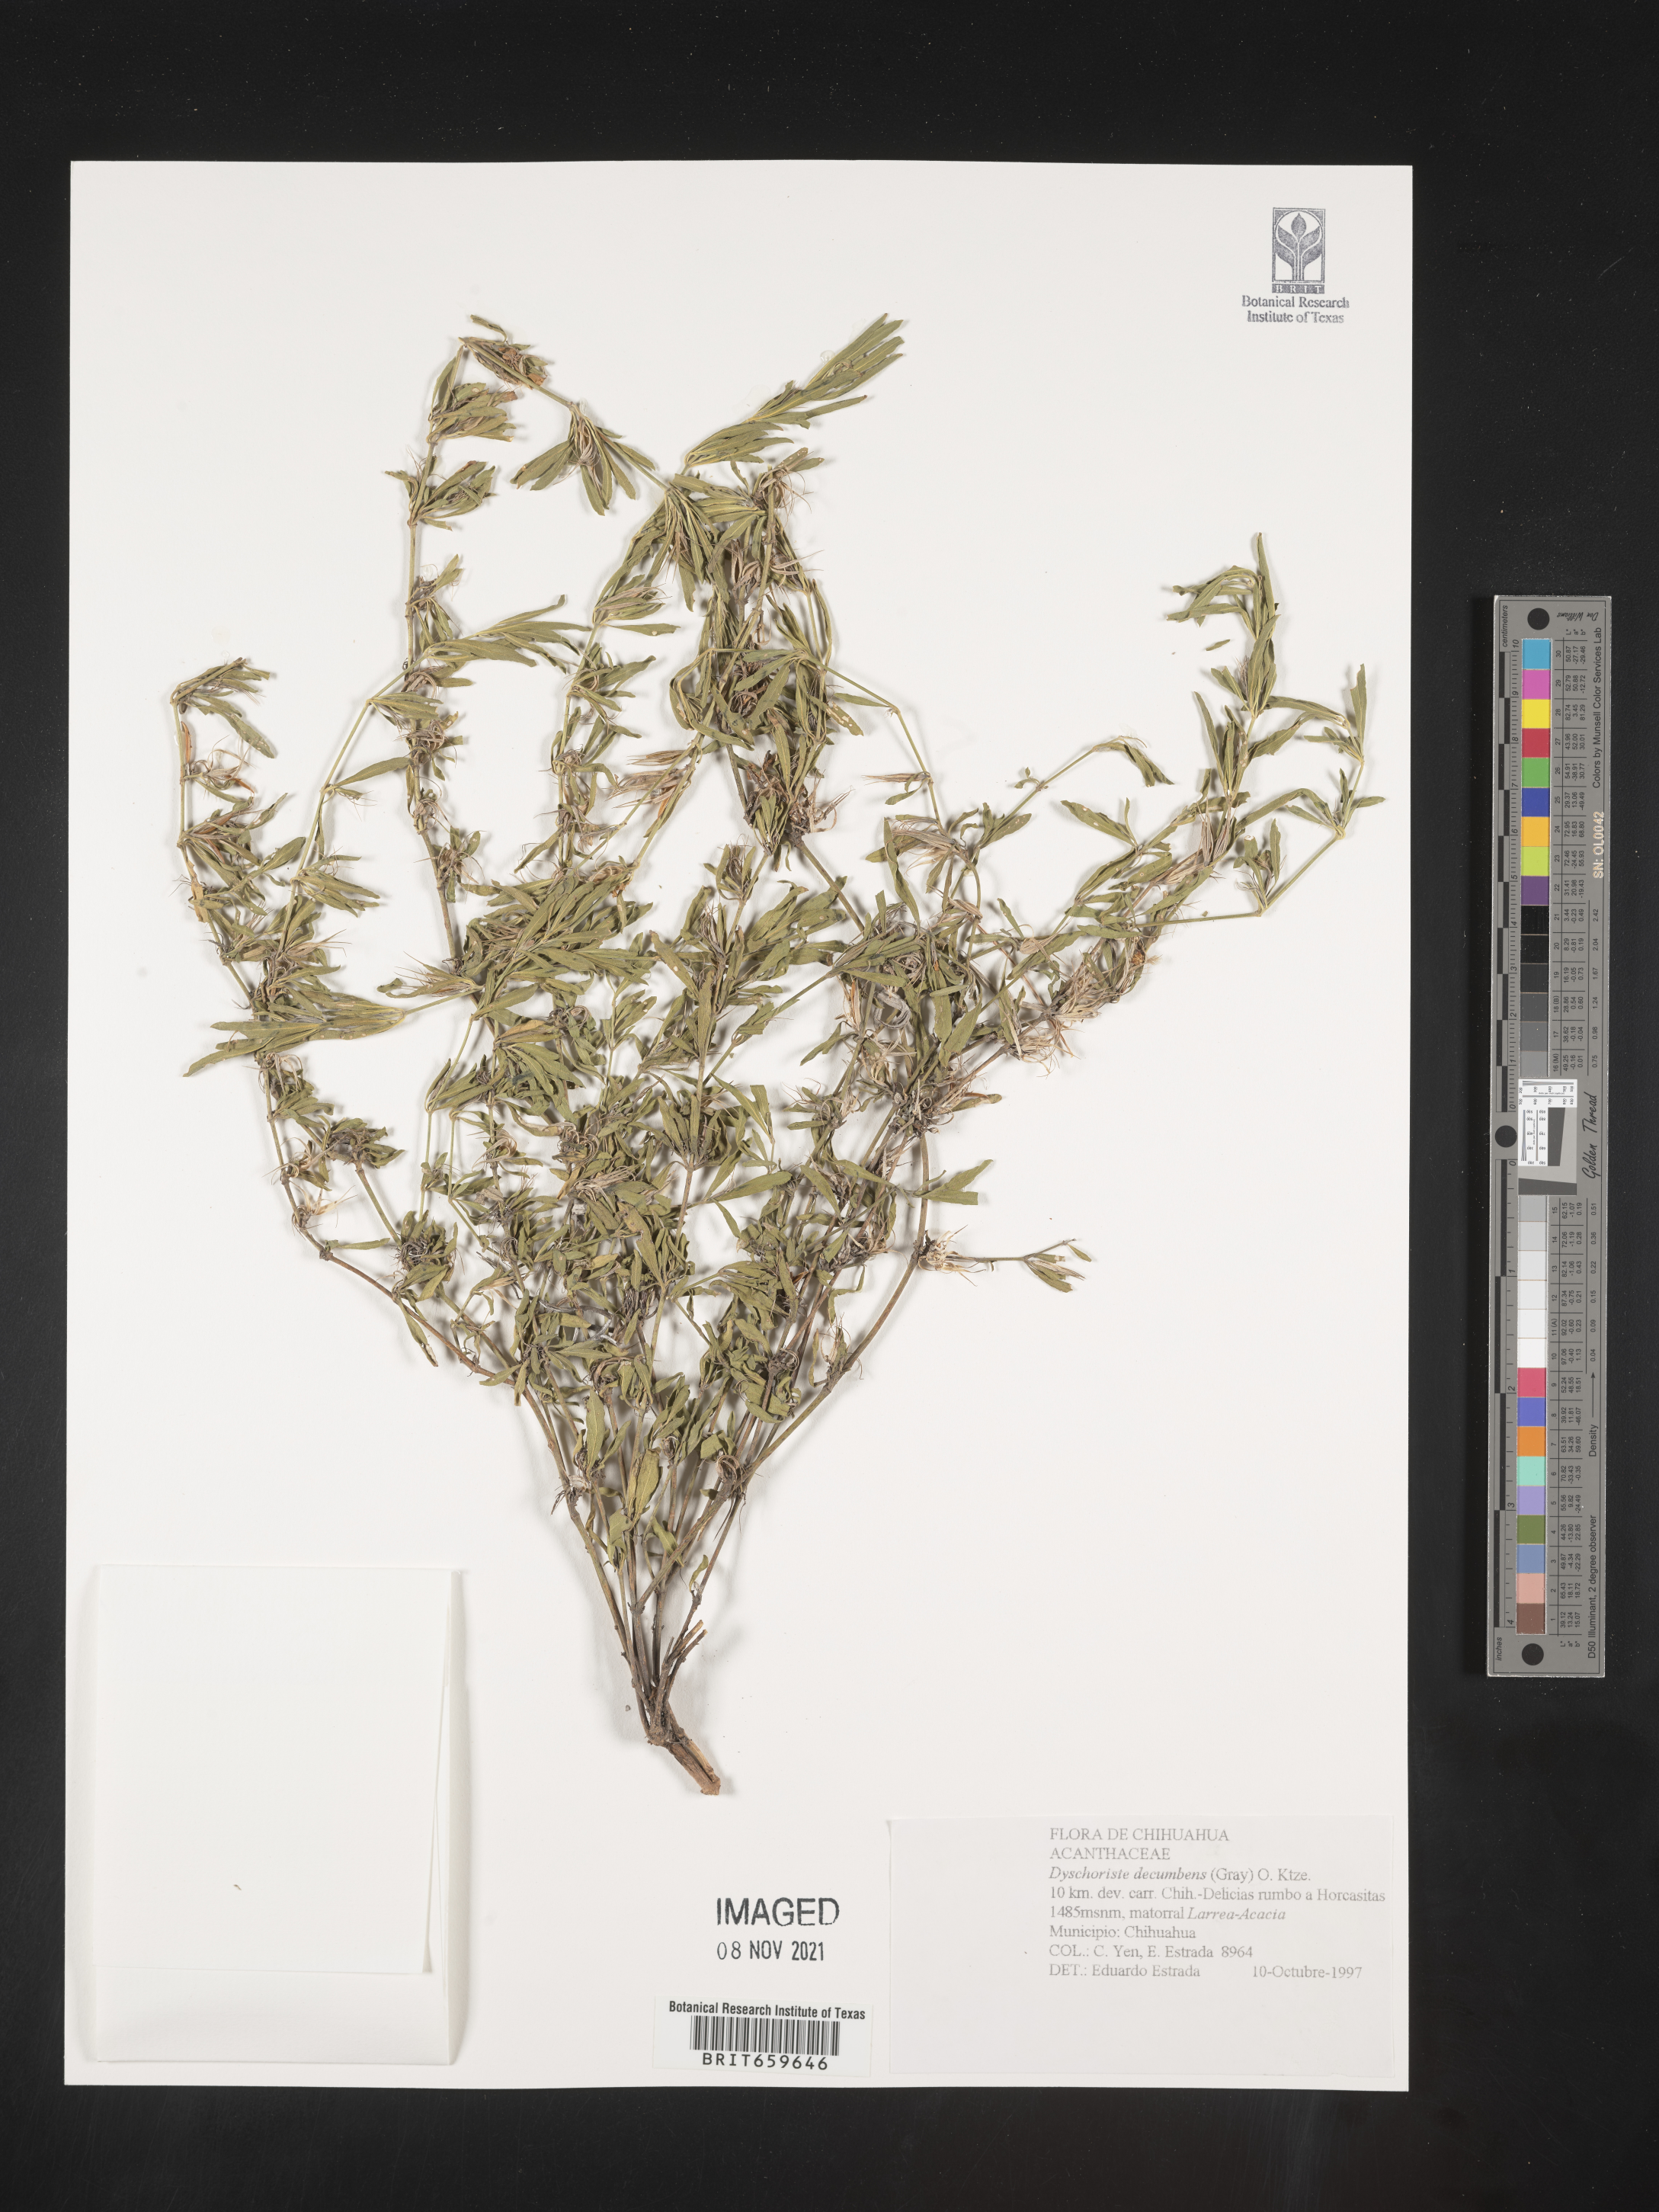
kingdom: Plantae
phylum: Tracheophyta
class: Magnoliopsida
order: Lamiales
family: Acanthaceae
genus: Dyschoriste
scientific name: Dyschoriste
